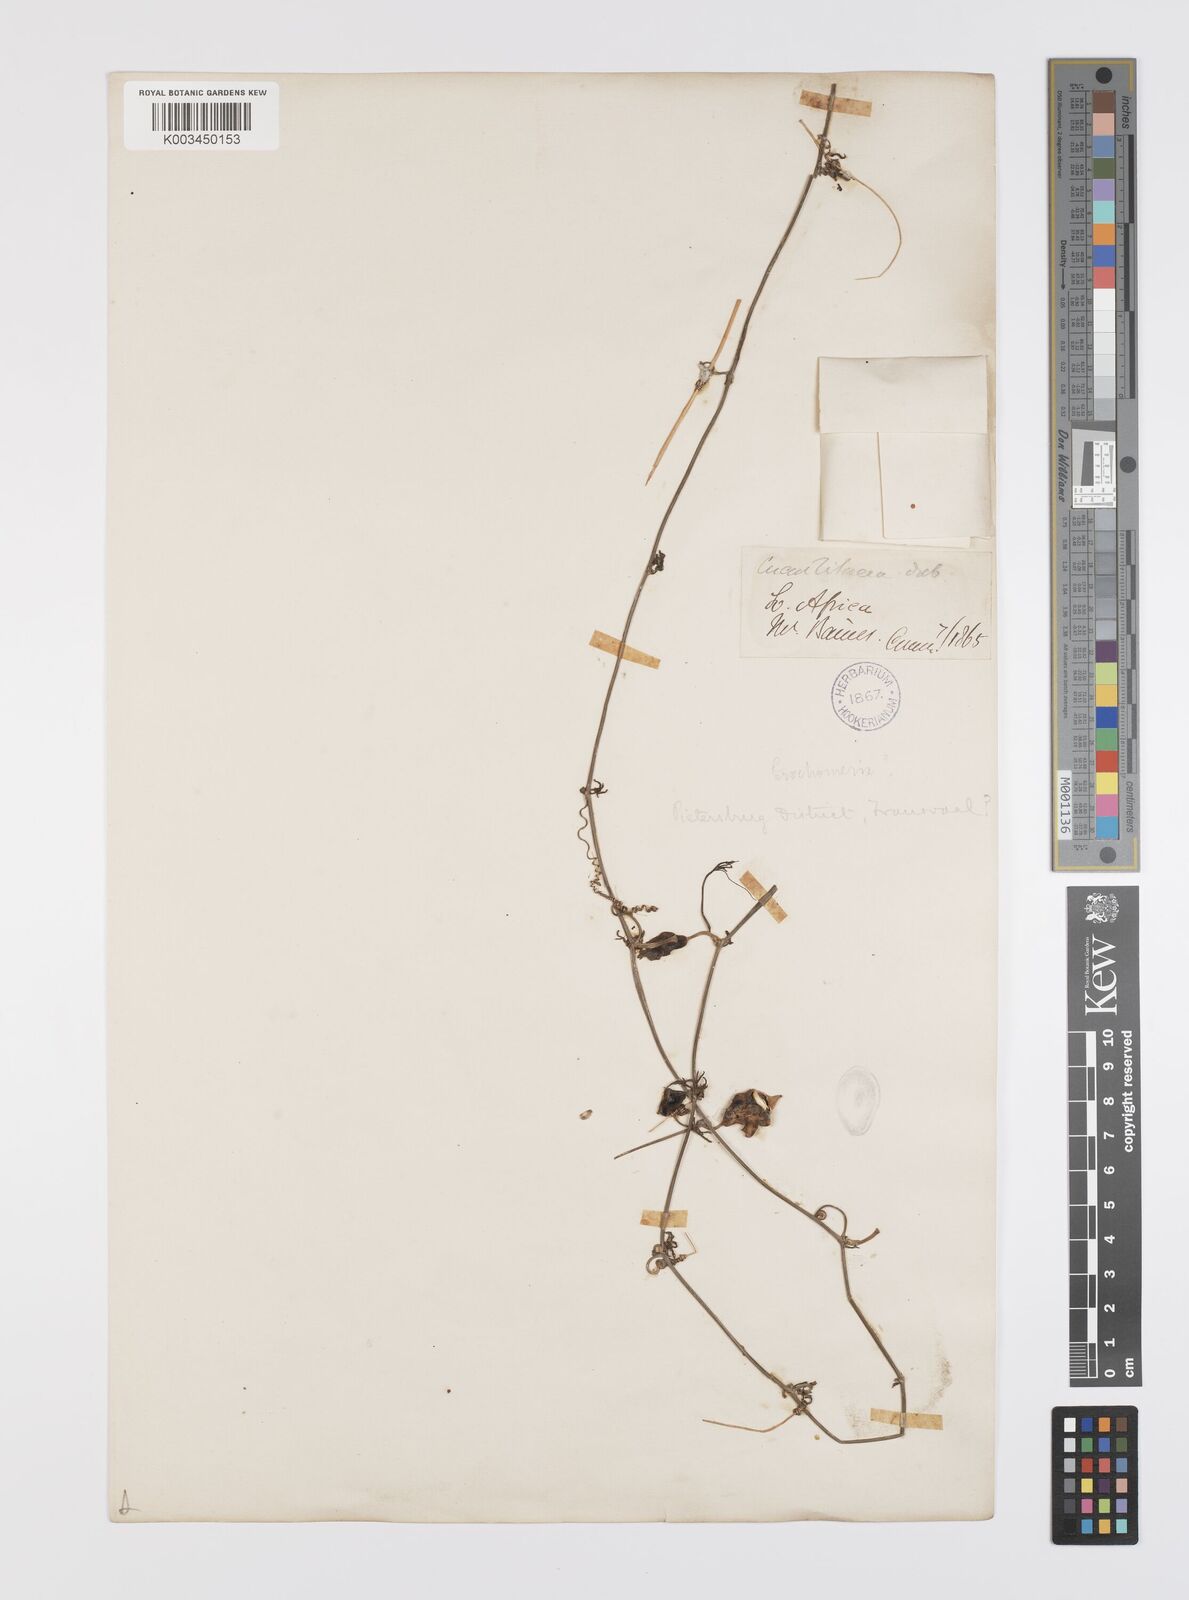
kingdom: Plantae
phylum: Tracheophyta
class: Magnoliopsida
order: Cucurbitales
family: Cucurbitaceae
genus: Trochomeria
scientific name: Trochomeria debilis
